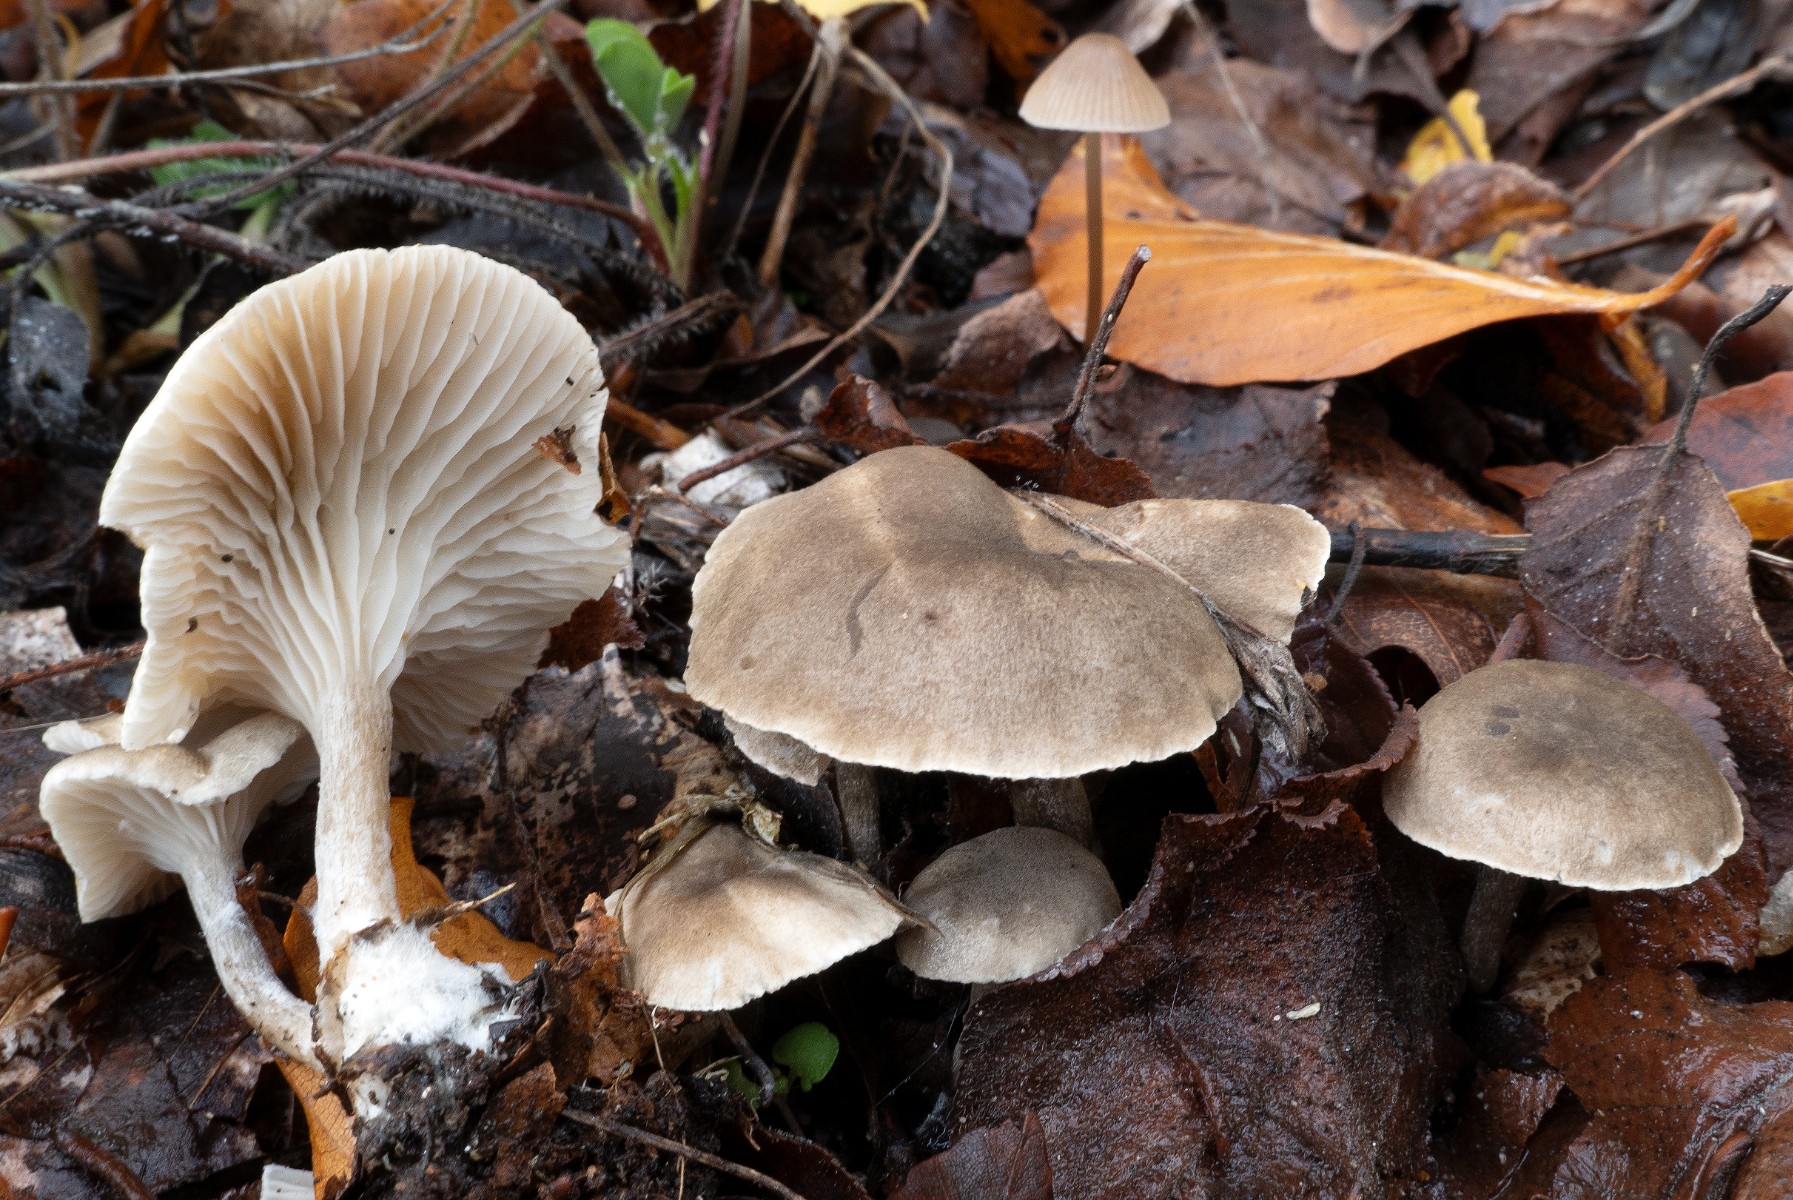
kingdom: Fungi
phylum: Basidiomycota
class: Agaricomycetes
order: Agaricales
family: Hygrophoraceae
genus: Spodocybe
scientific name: Spodocybe trulliformis
